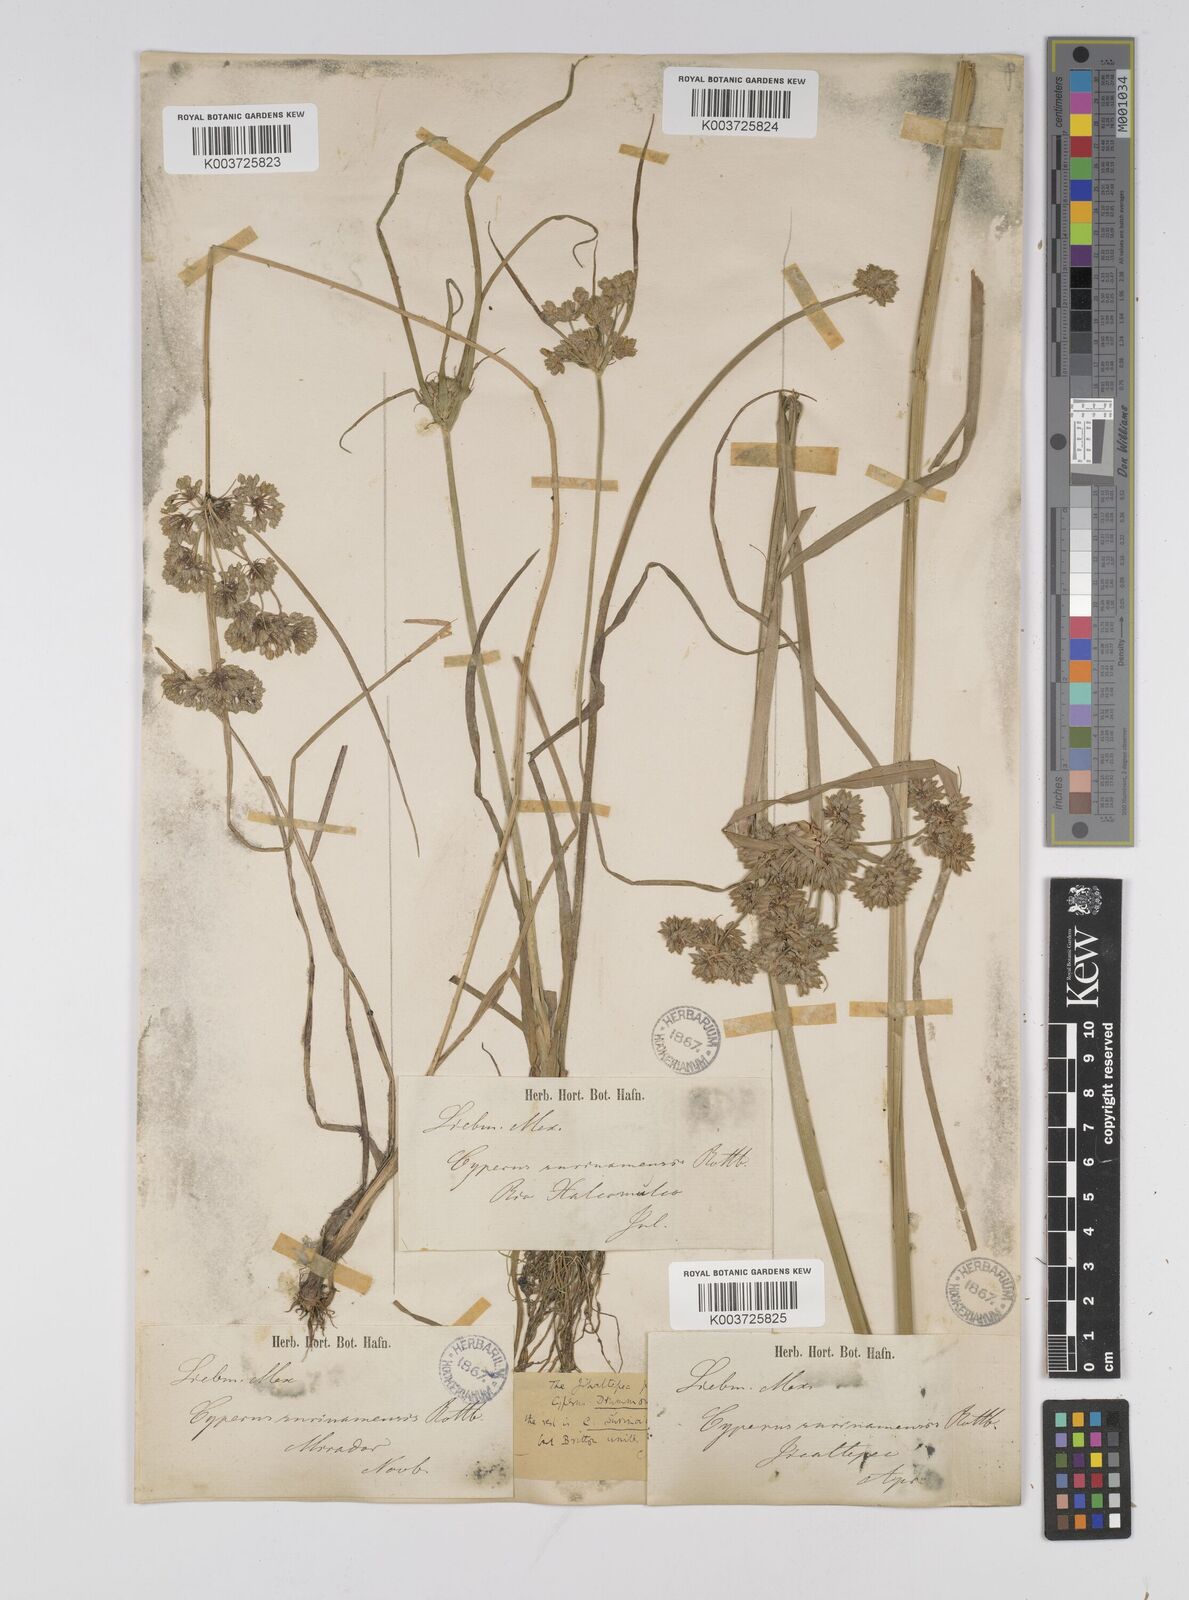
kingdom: Plantae
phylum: Tracheophyta
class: Liliopsida
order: Poales
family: Cyperaceae
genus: Cyperus
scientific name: Cyperus drummondii
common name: Green flat sedge
